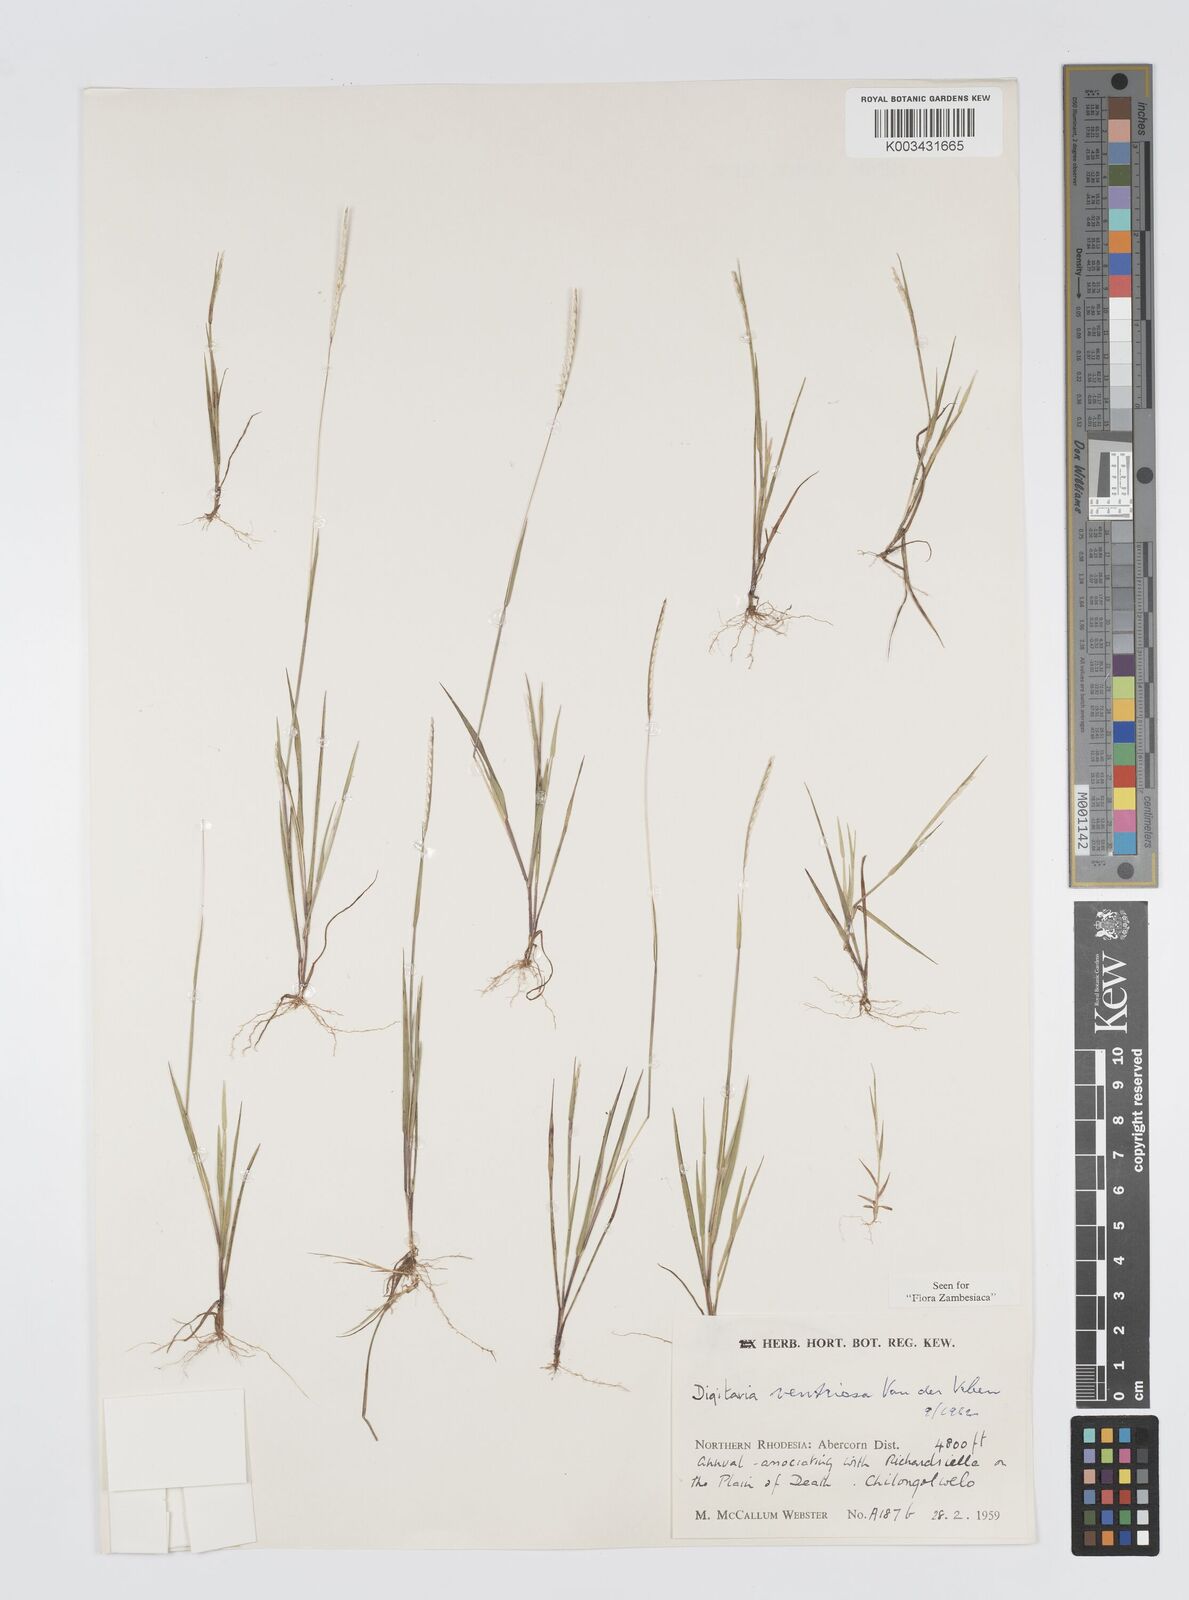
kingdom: Plantae
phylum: Tracheophyta
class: Liliopsida
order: Poales
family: Poaceae
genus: Digitaria
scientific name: Digitaria ventriosa
